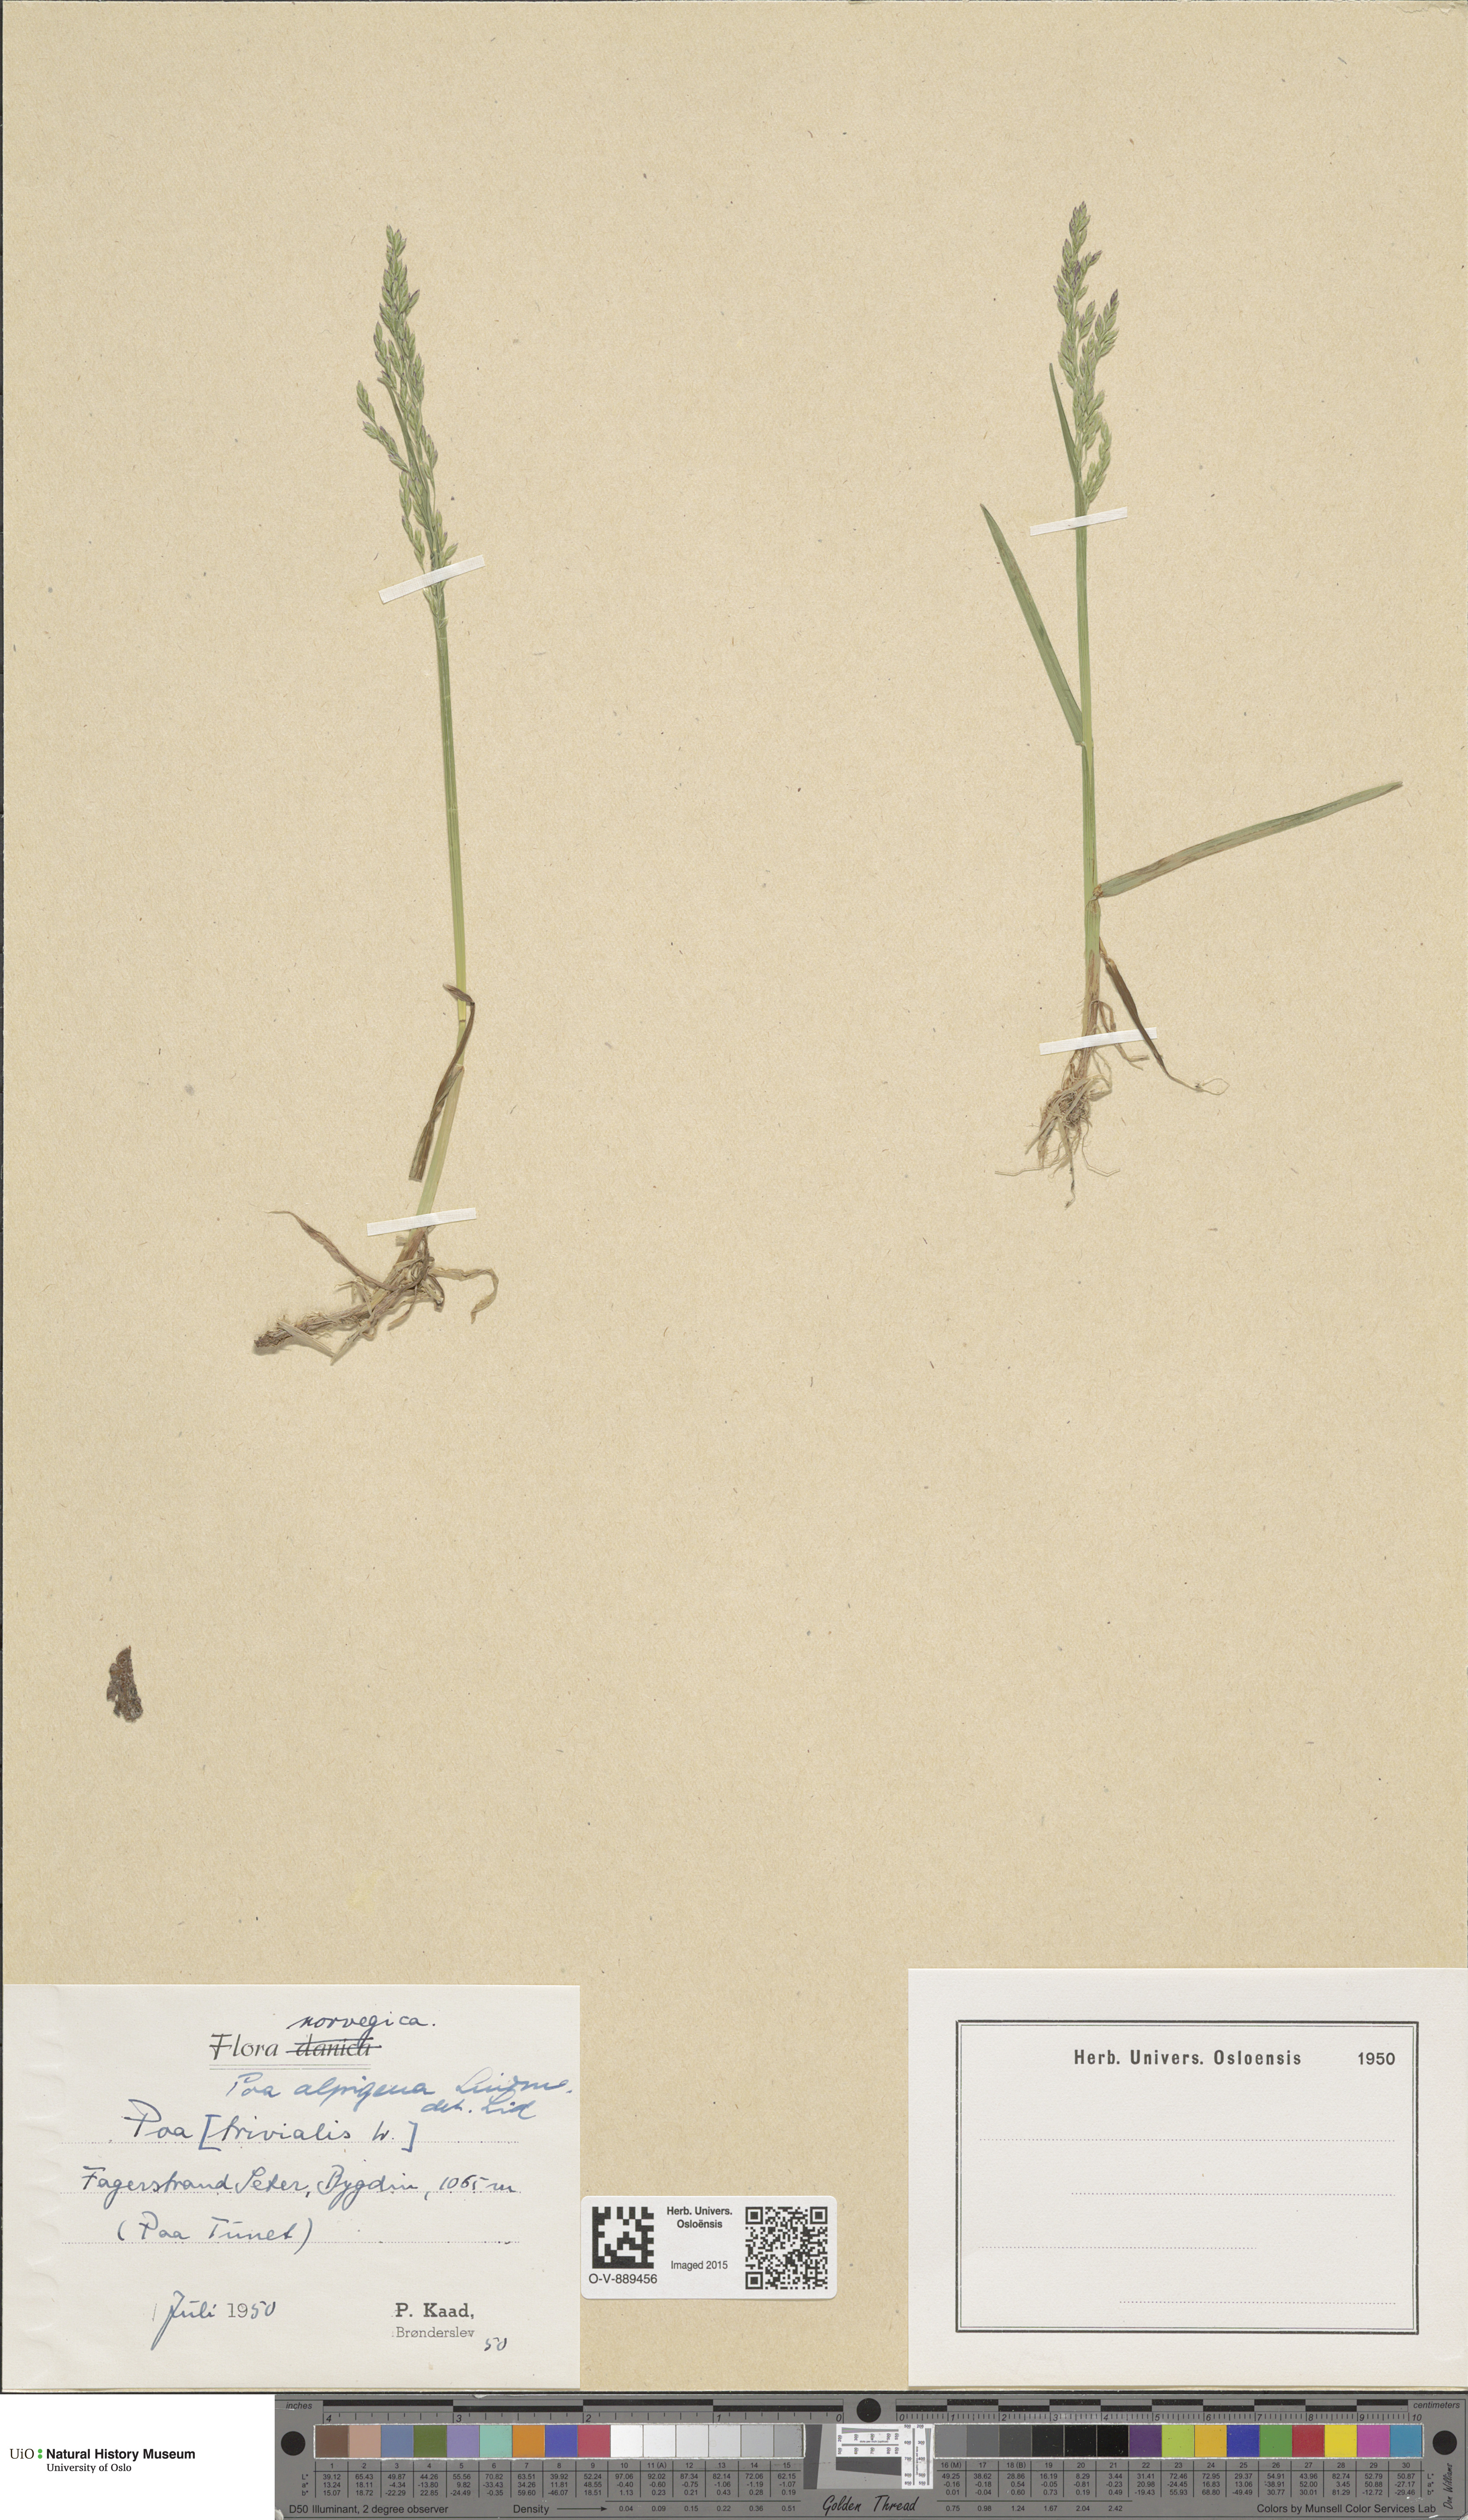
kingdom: Plantae
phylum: Tracheophyta
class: Liliopsida
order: Poales
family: Poaceae
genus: Poa
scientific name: Poa alpigena
